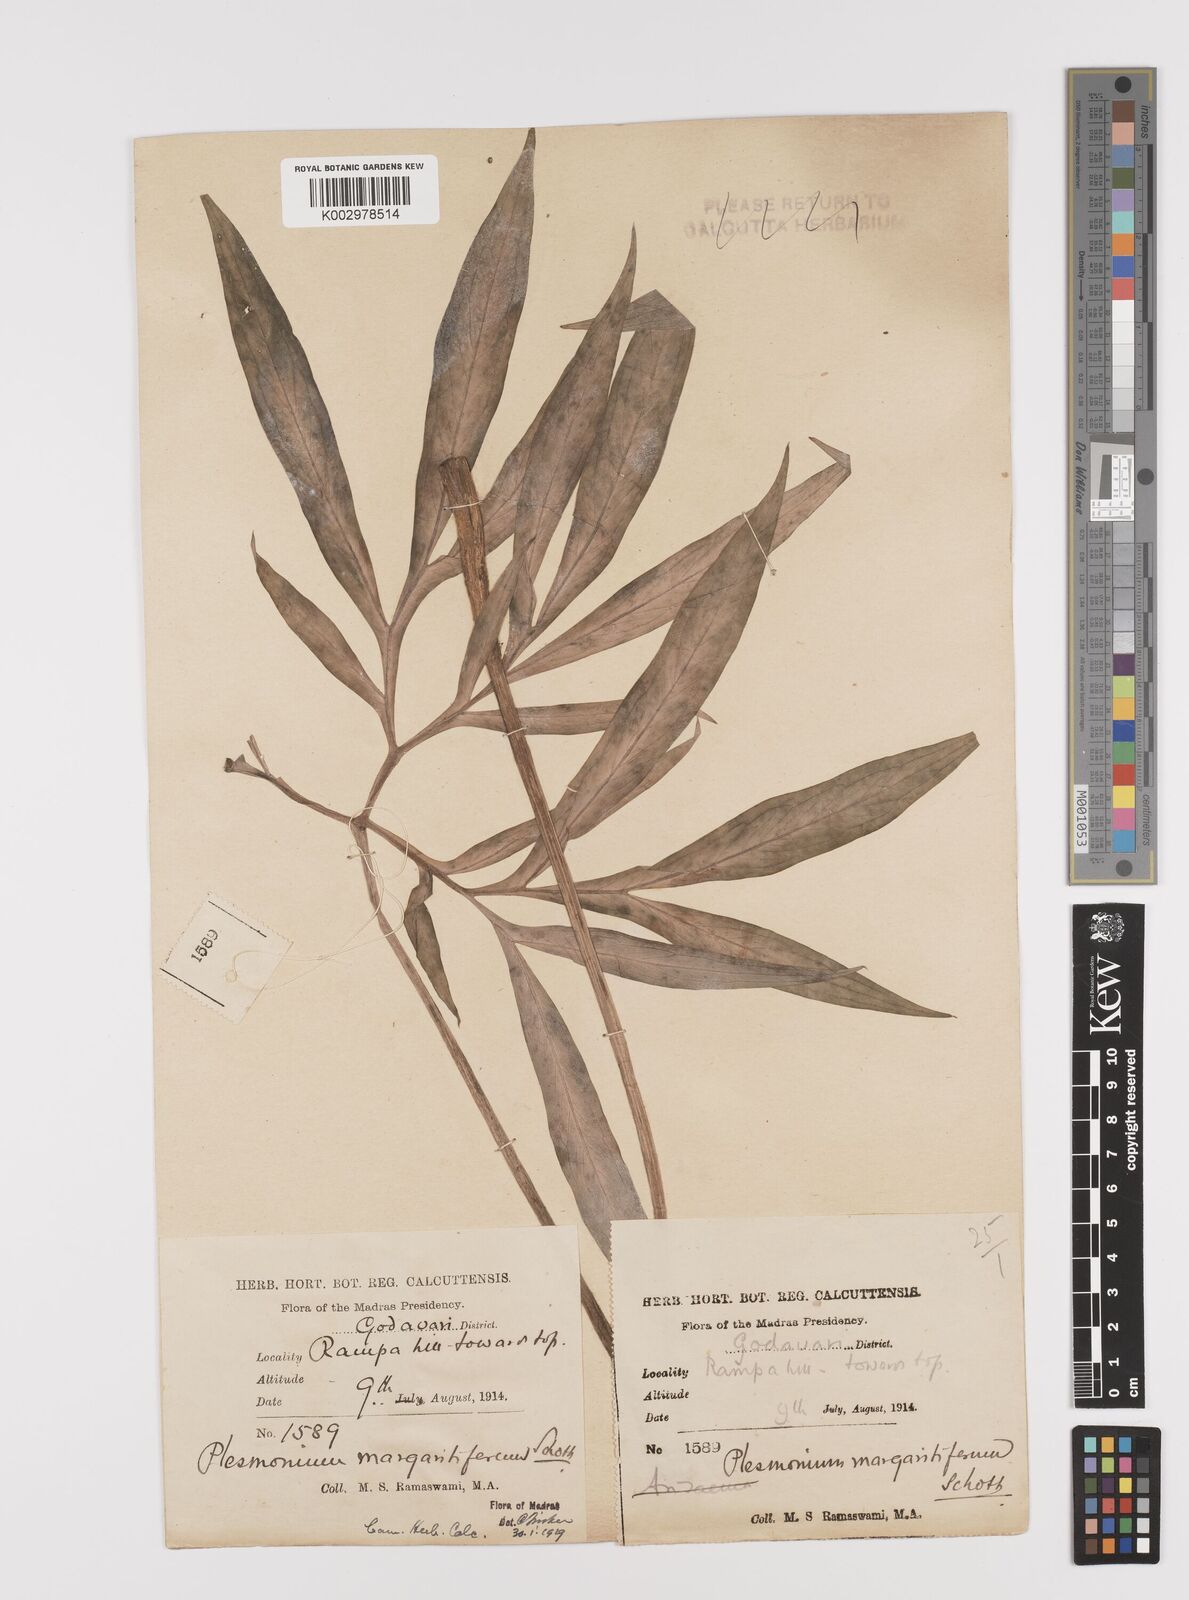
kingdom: Plantae
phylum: Tracheophyta
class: Liliopsida
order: Alismatales
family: Araceae
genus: Amorphophallus
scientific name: Amorphophallus margaritifer
